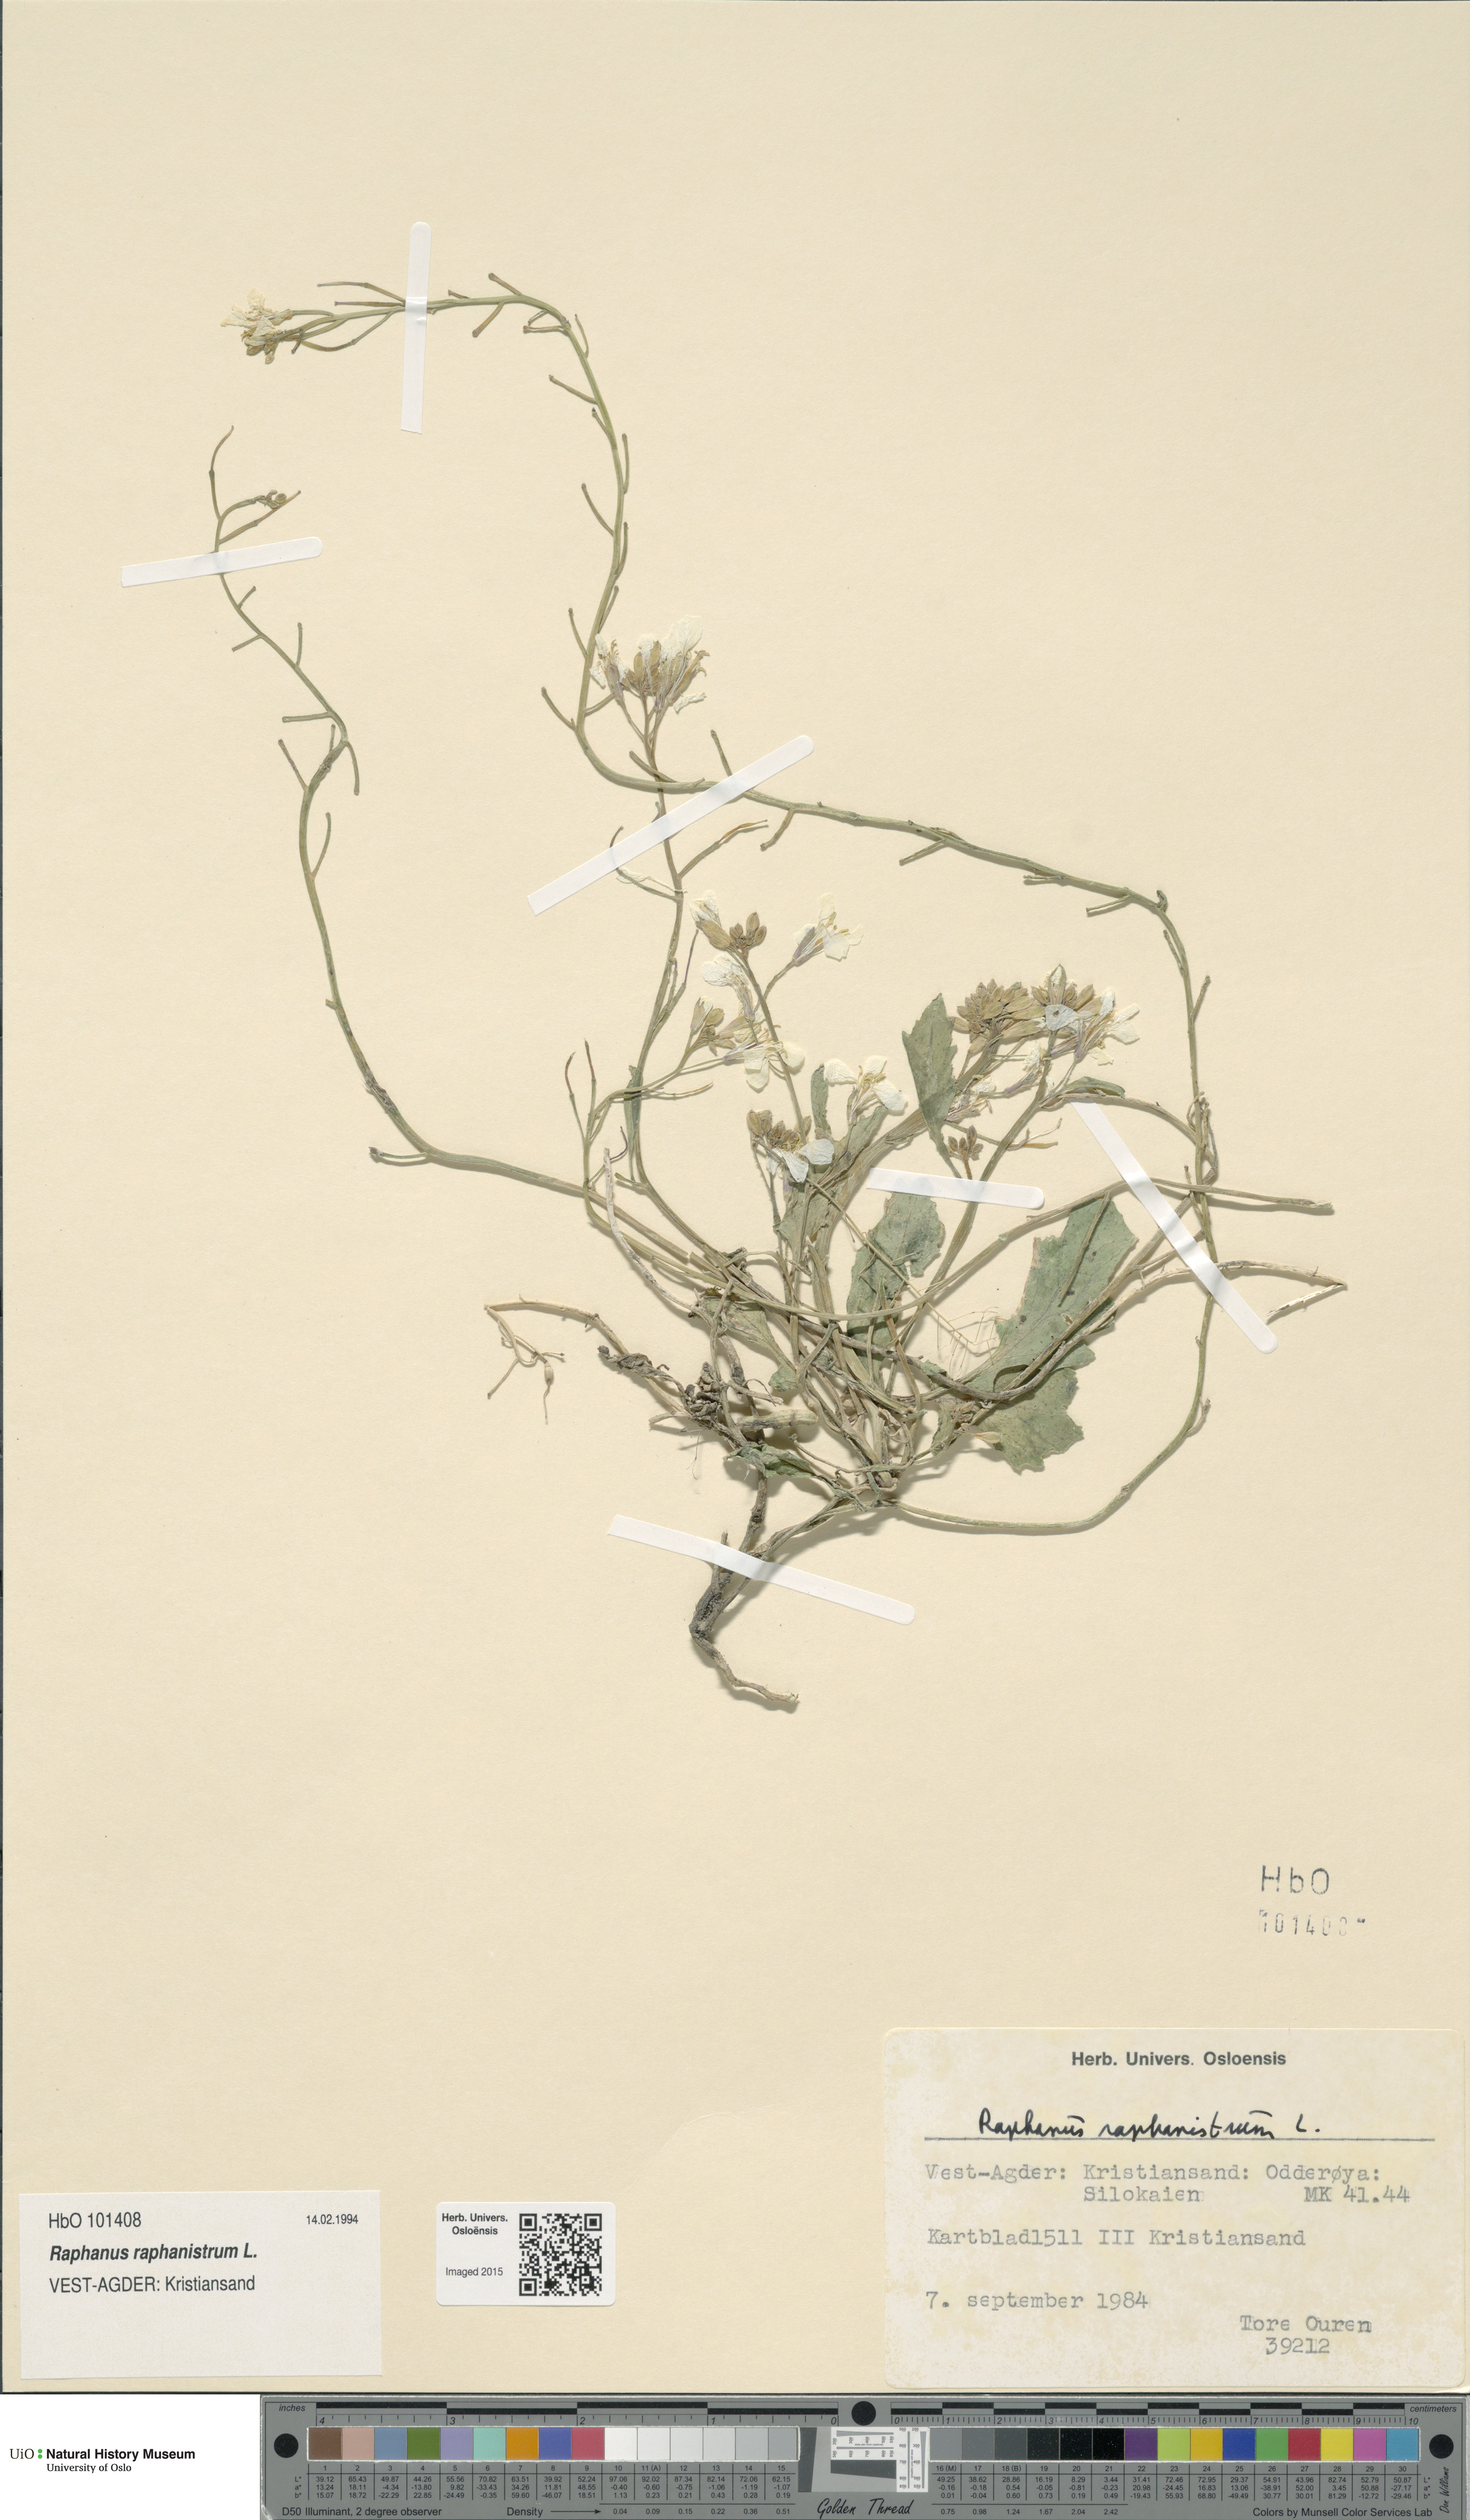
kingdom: Plantae
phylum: Tracheophyta
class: Magnoliopsida
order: Brassicales
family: Brassicaceae
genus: Raphanus
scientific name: Raphanus raphanistrum
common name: Wild radish
